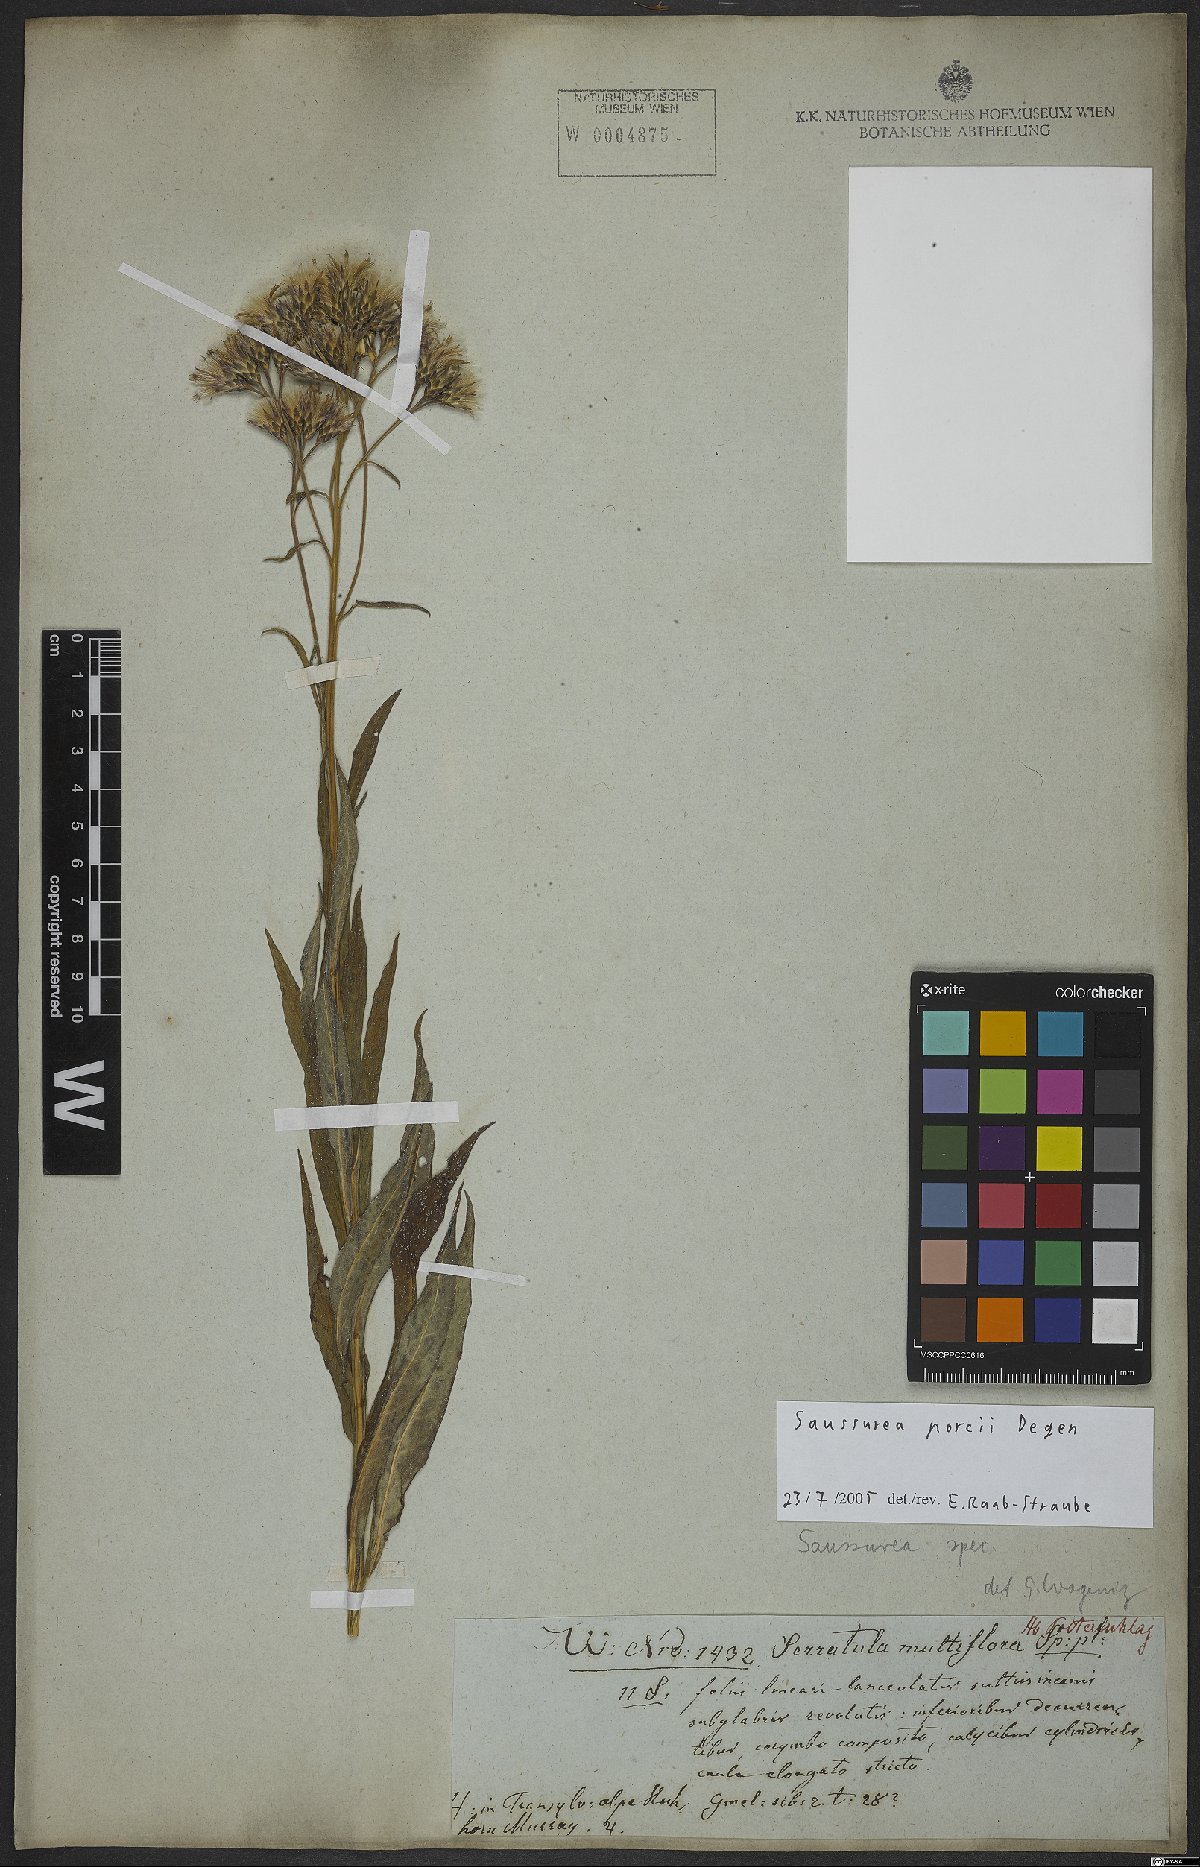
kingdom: Plantae
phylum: Tracheophyta
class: Magnoliopsida
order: Asterales
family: Asteraceae
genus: Saussurea
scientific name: Saussurea porcii
